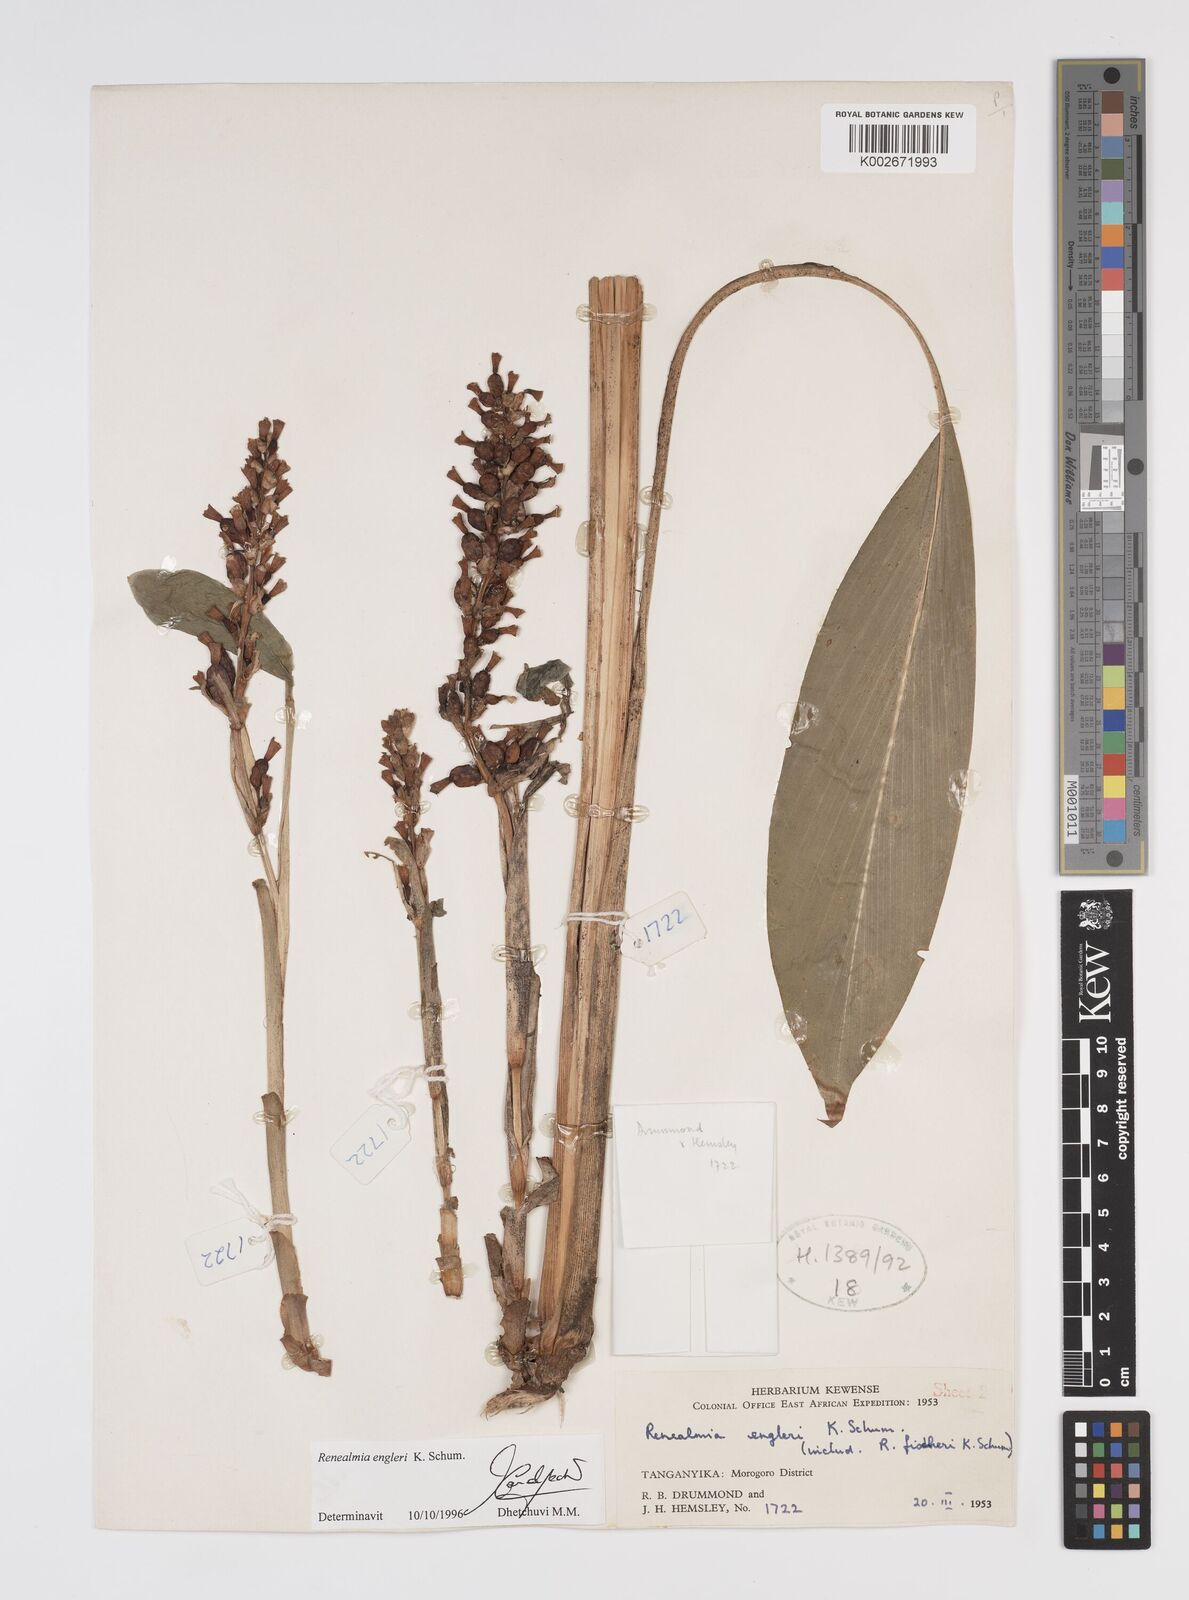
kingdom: Plantae
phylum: Tracheophyta
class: Liliopsida
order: Zingiberales
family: Zingiberaceae
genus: Renealmia
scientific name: Renealmia engleri
